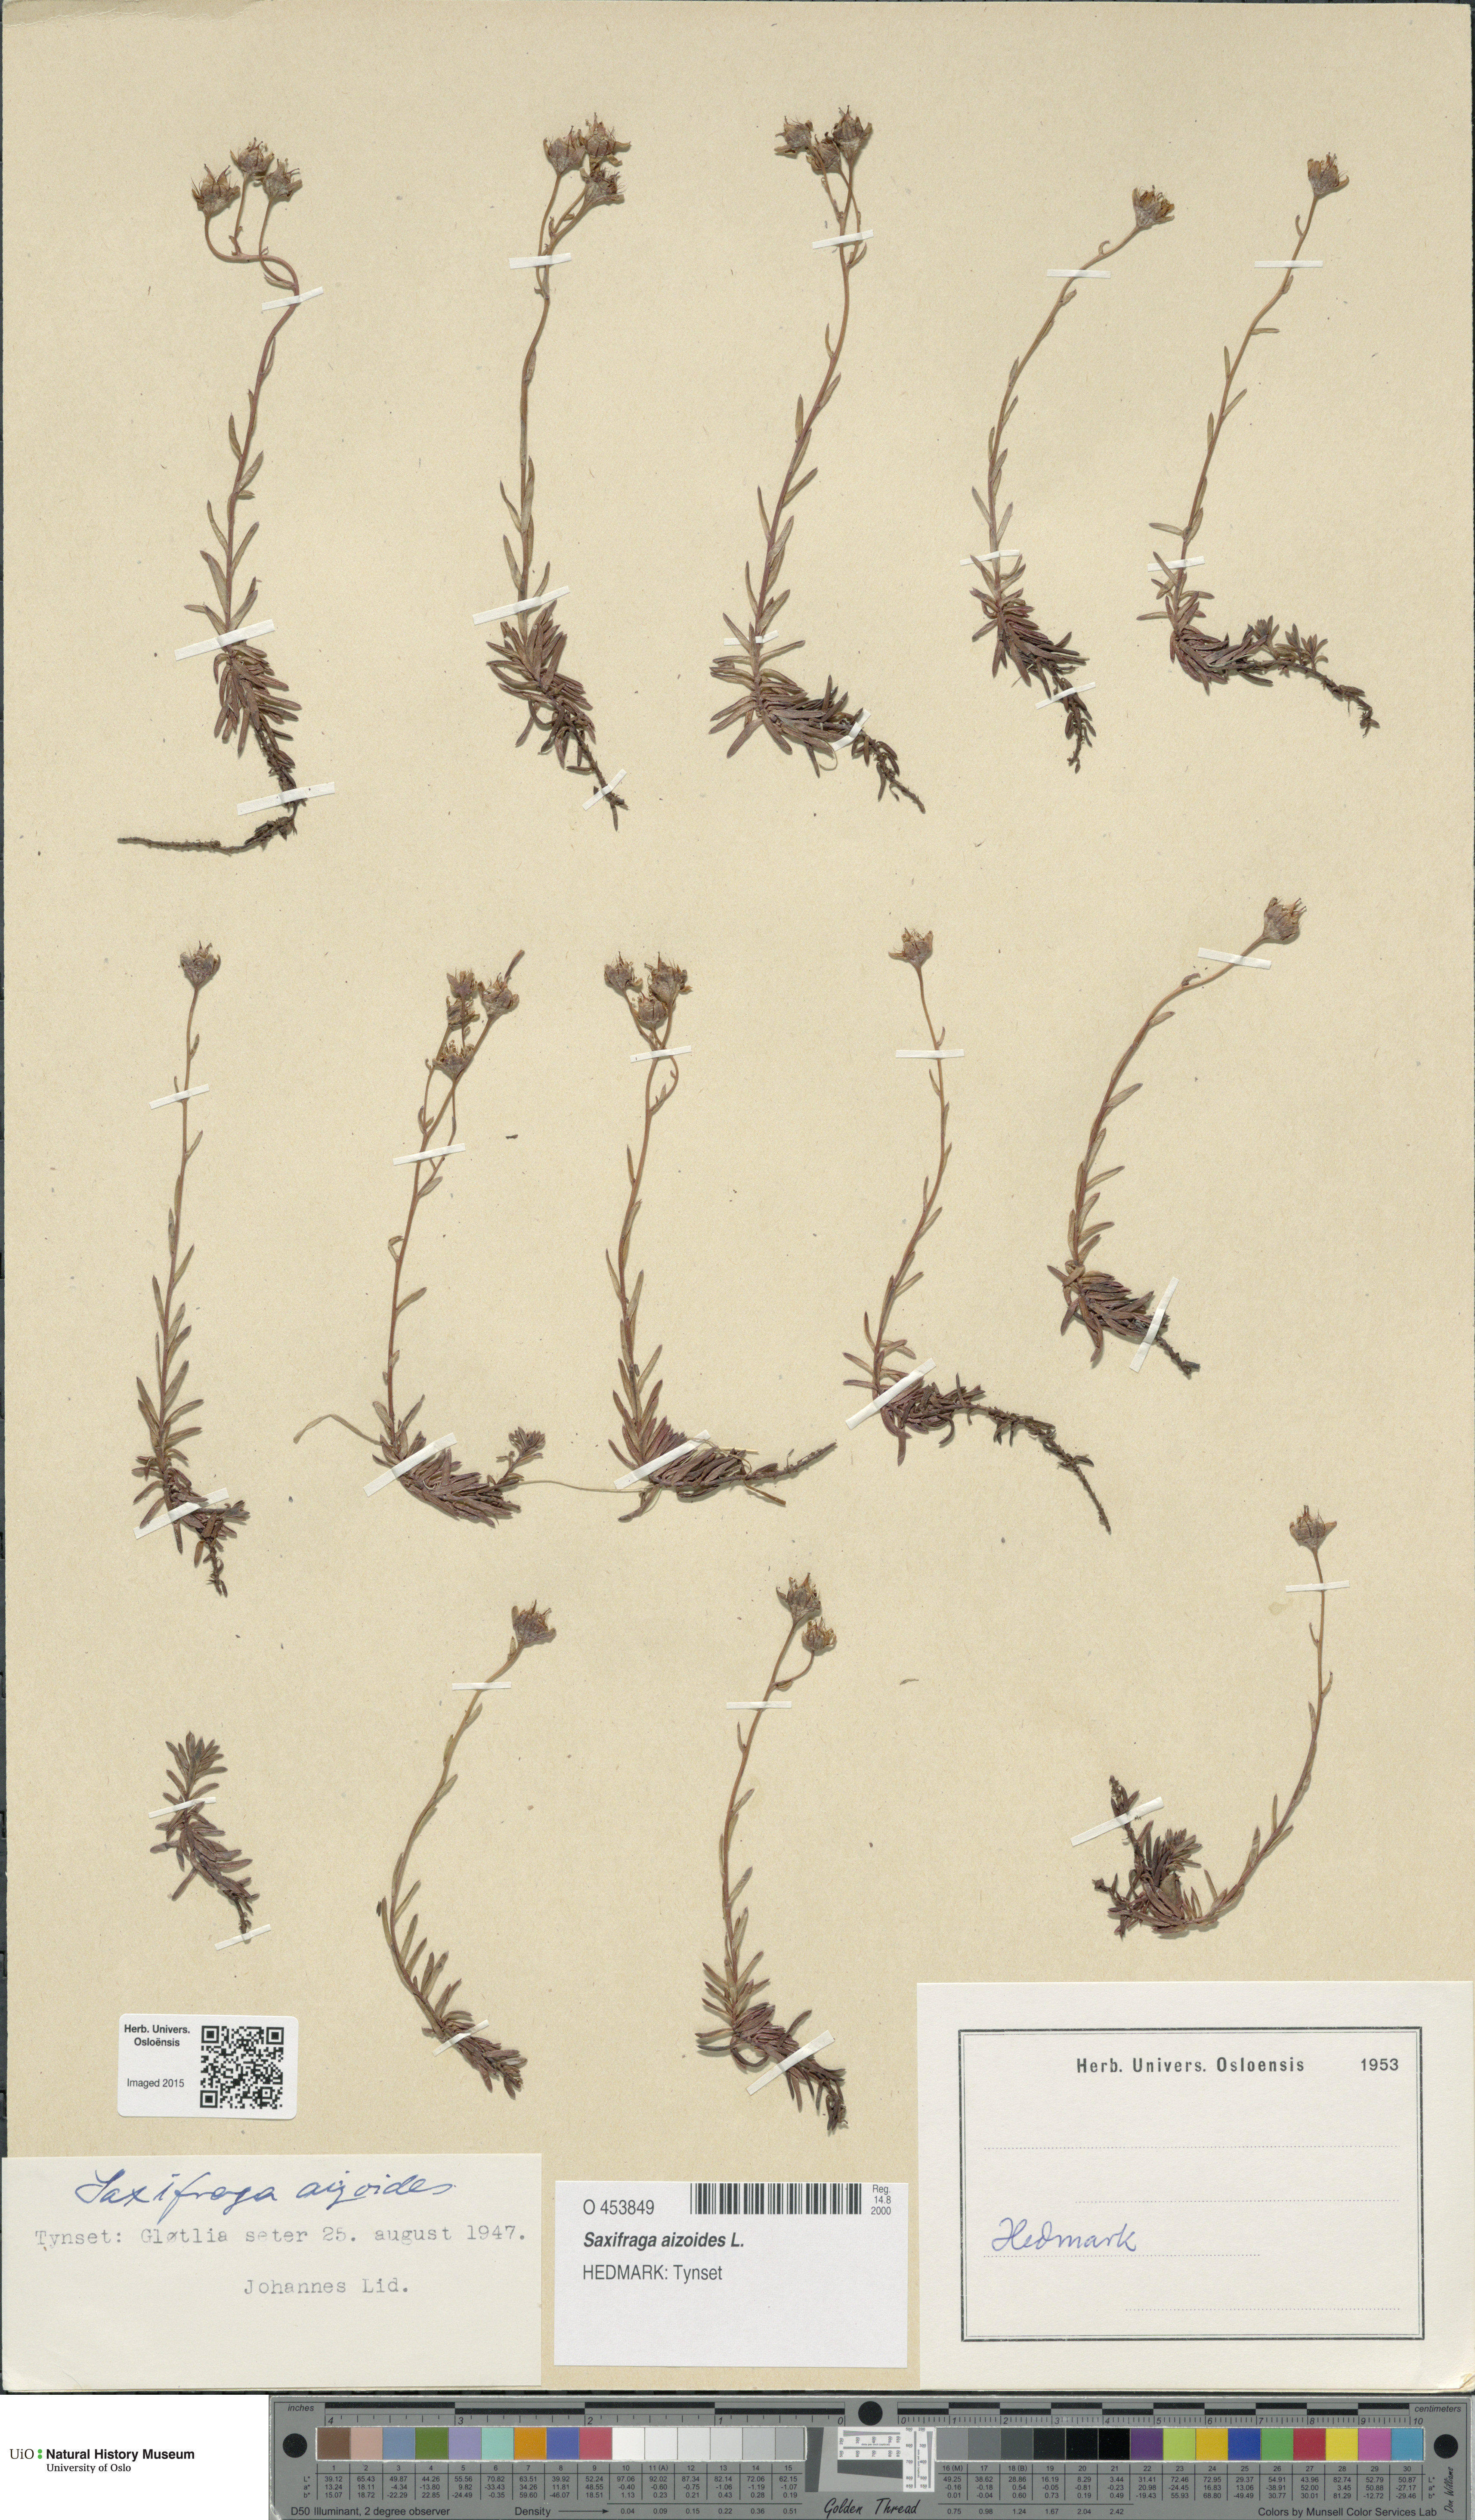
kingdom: Plantae
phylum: Tracheophyta
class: Magnoliopsida
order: Saxifragales
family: Saxifragaceae
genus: Saxifraga
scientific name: Saxifraga aizoides
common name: Yellow mountain saxifrage
